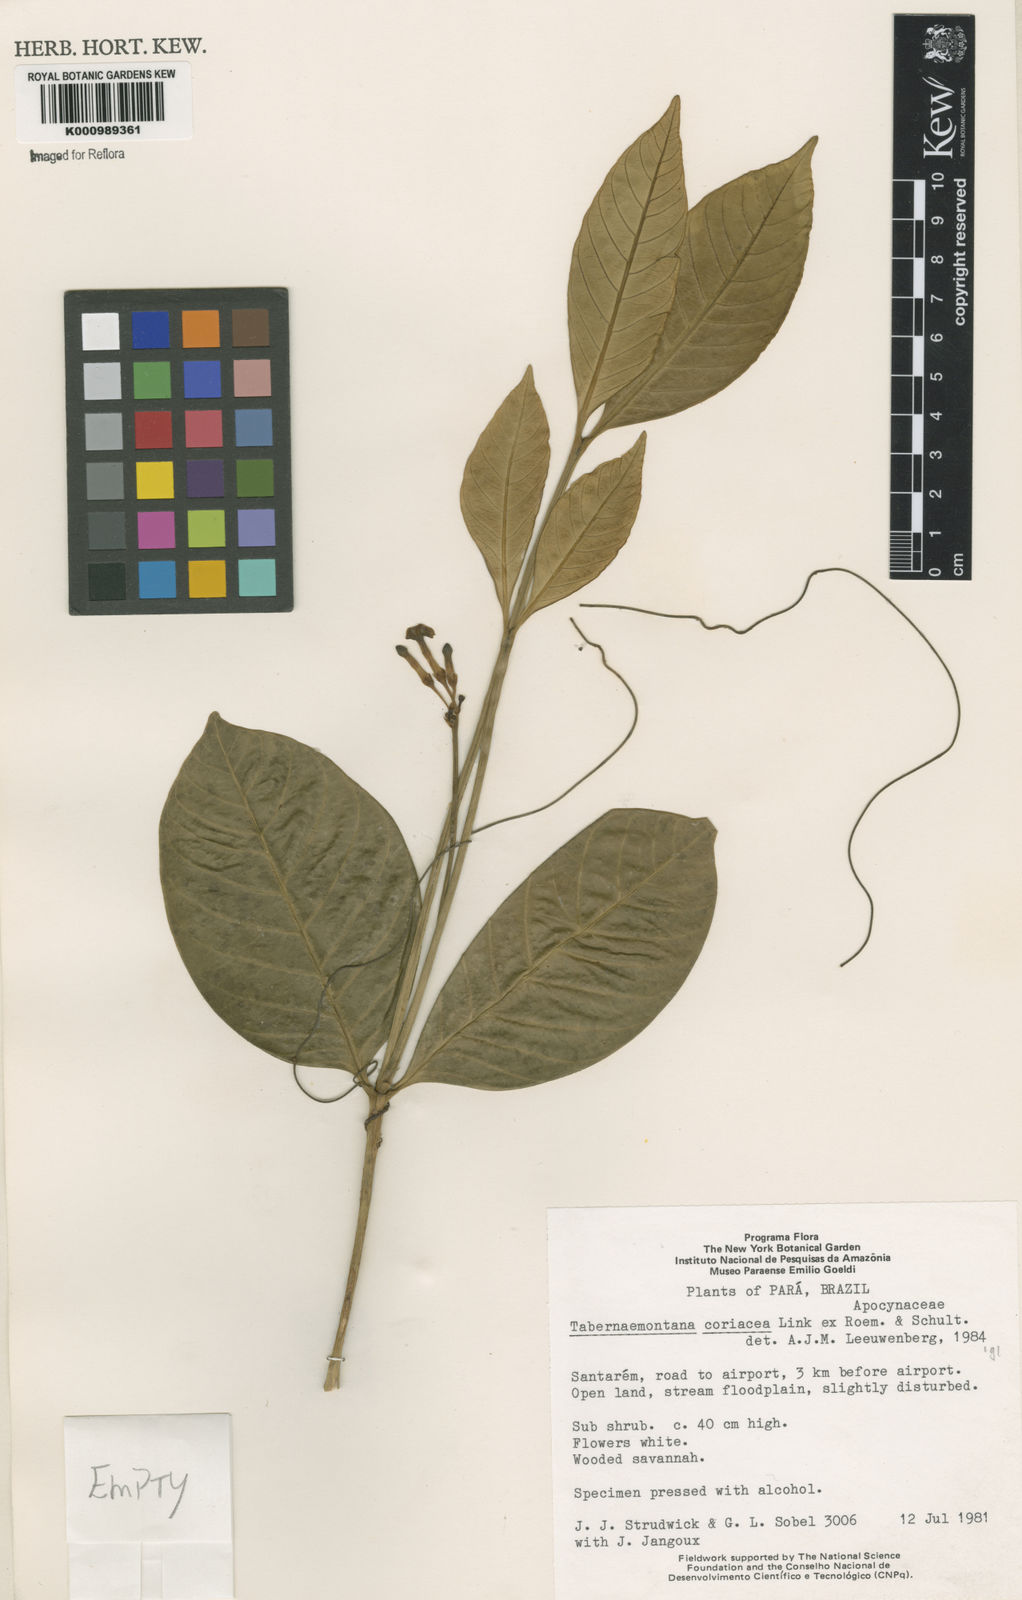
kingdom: Plantae
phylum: Tracheophyta
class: Magnoliopsida
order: Gentianales
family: Apocynaceae
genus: Tabernaemontana
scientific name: Tabernaemontana coriacea
